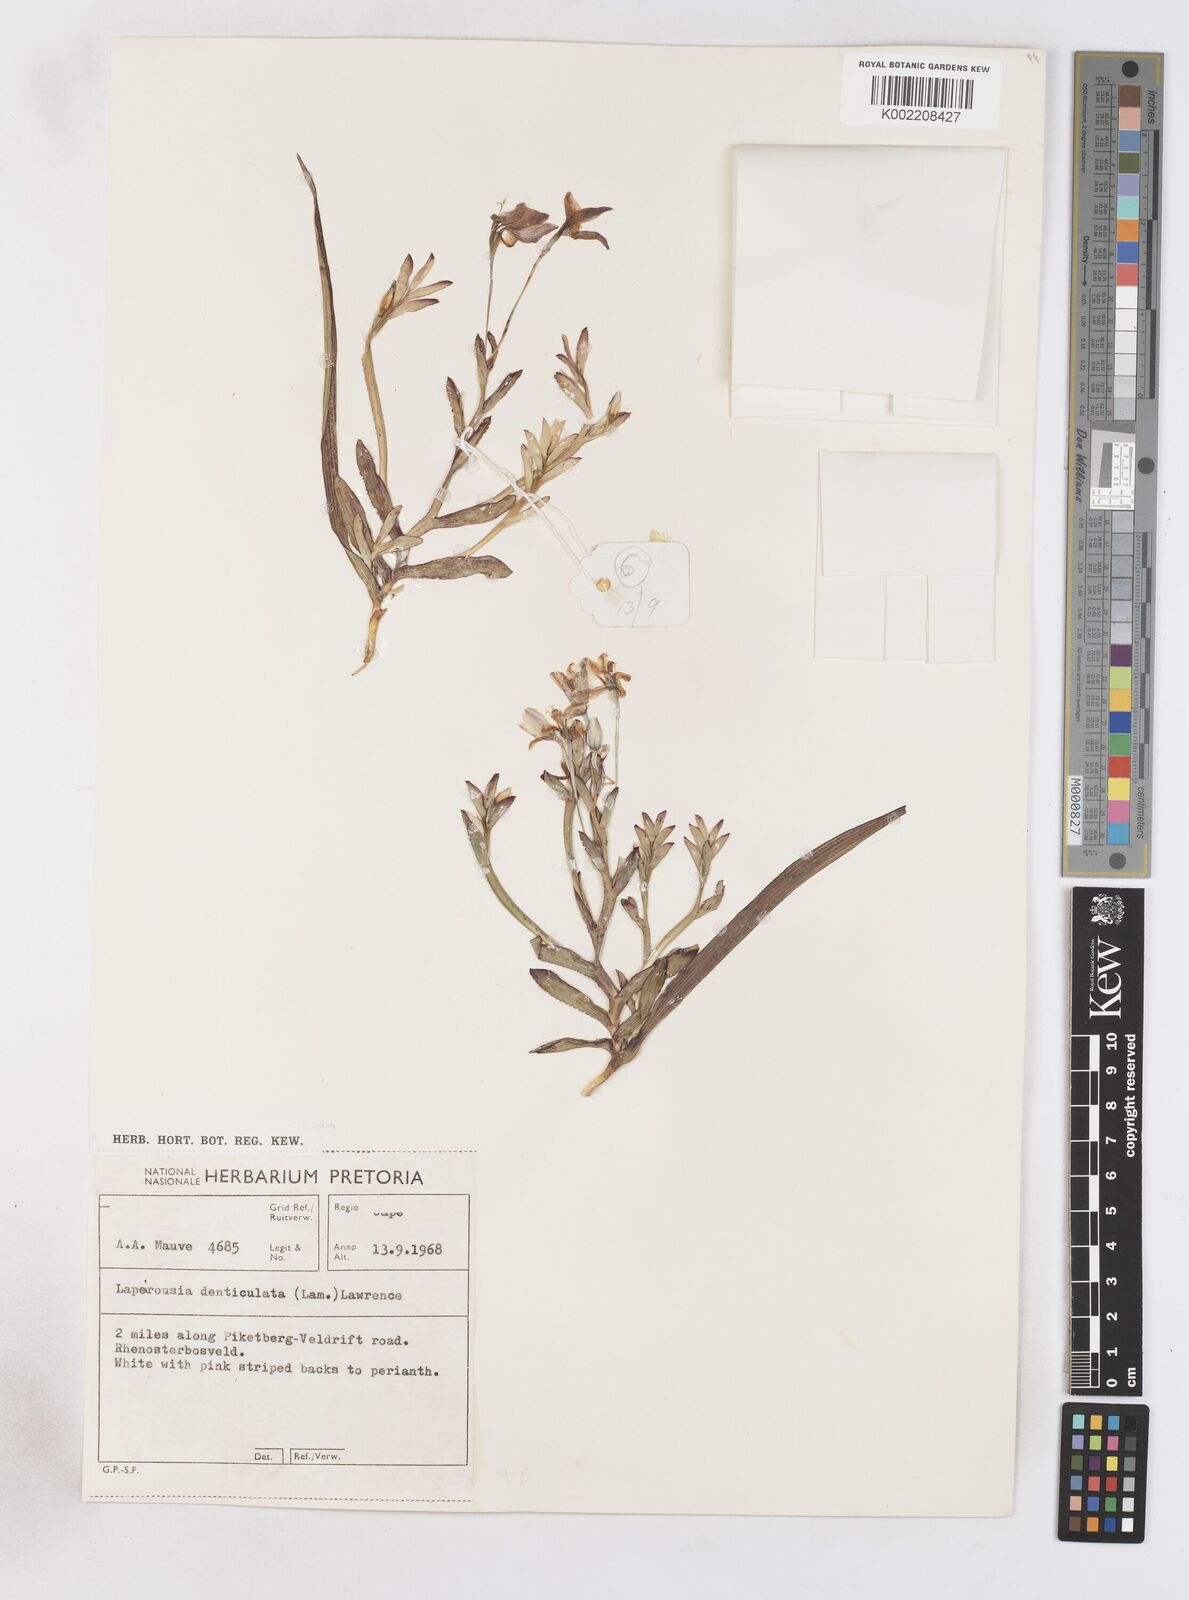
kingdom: Plantae
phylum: Tracheophyta
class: Liliopsida
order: Asparagales
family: Iridaceae
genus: Lapeirousia
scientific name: Lapeirousia fabricii
